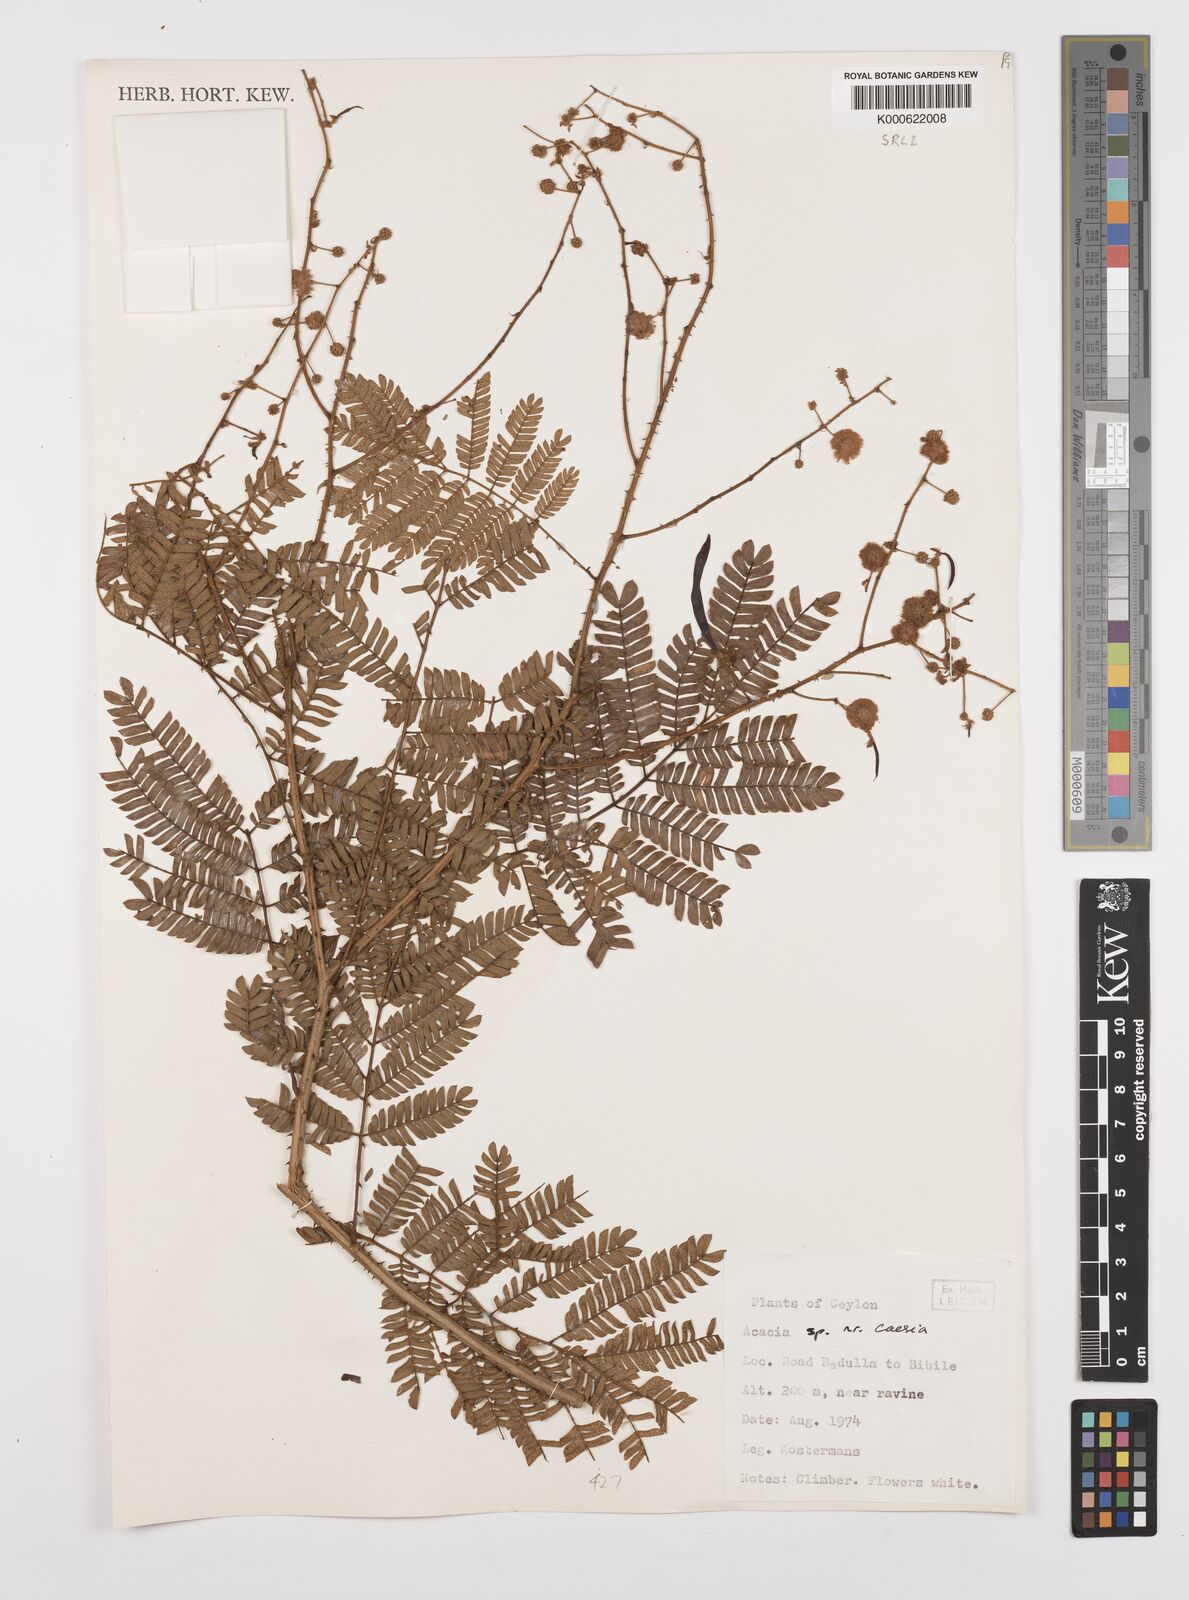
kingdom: Plantae
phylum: Tracheophyta
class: Magnoliopsida
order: Fabales
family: Fabaceae
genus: Senegalia
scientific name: Senegalia caesia
